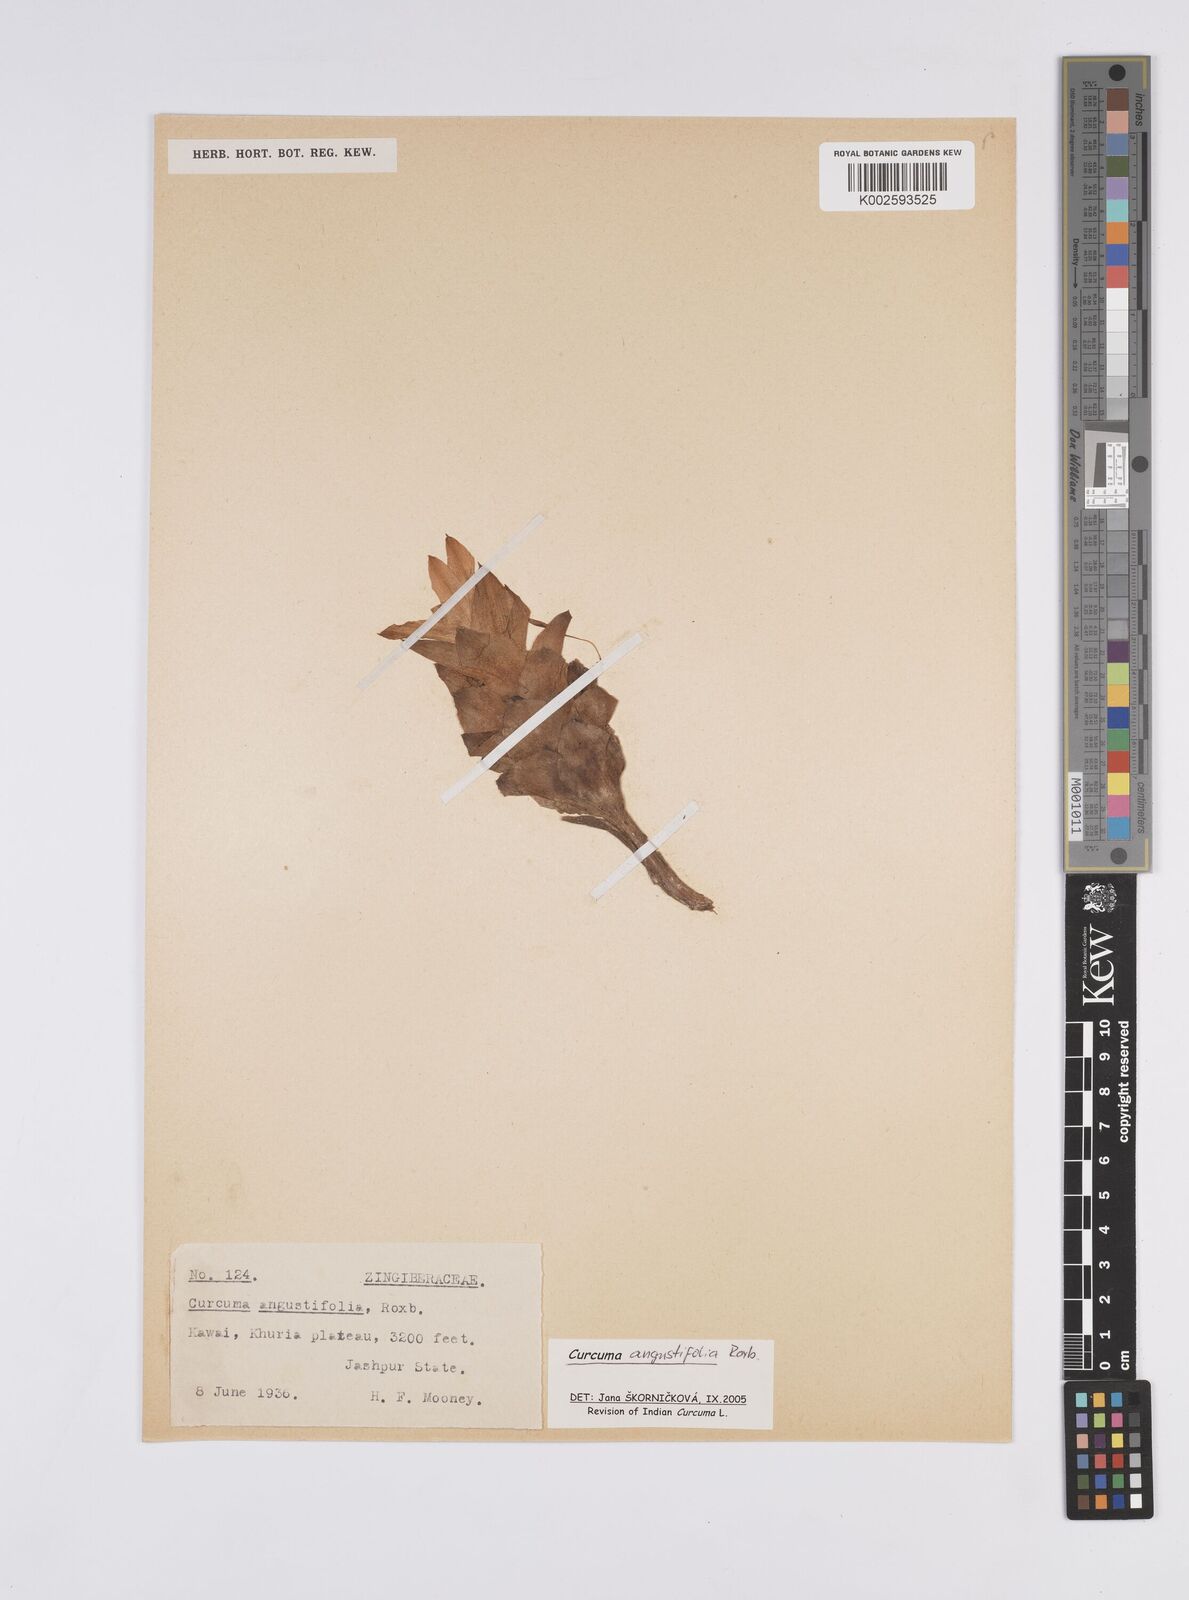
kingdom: Plantae
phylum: Tracheophyta
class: Liliopsida
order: Zingiberales
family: Zingiberaceae
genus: Curcuma
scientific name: Curcuma angustifolia
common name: East indian arrowroot
